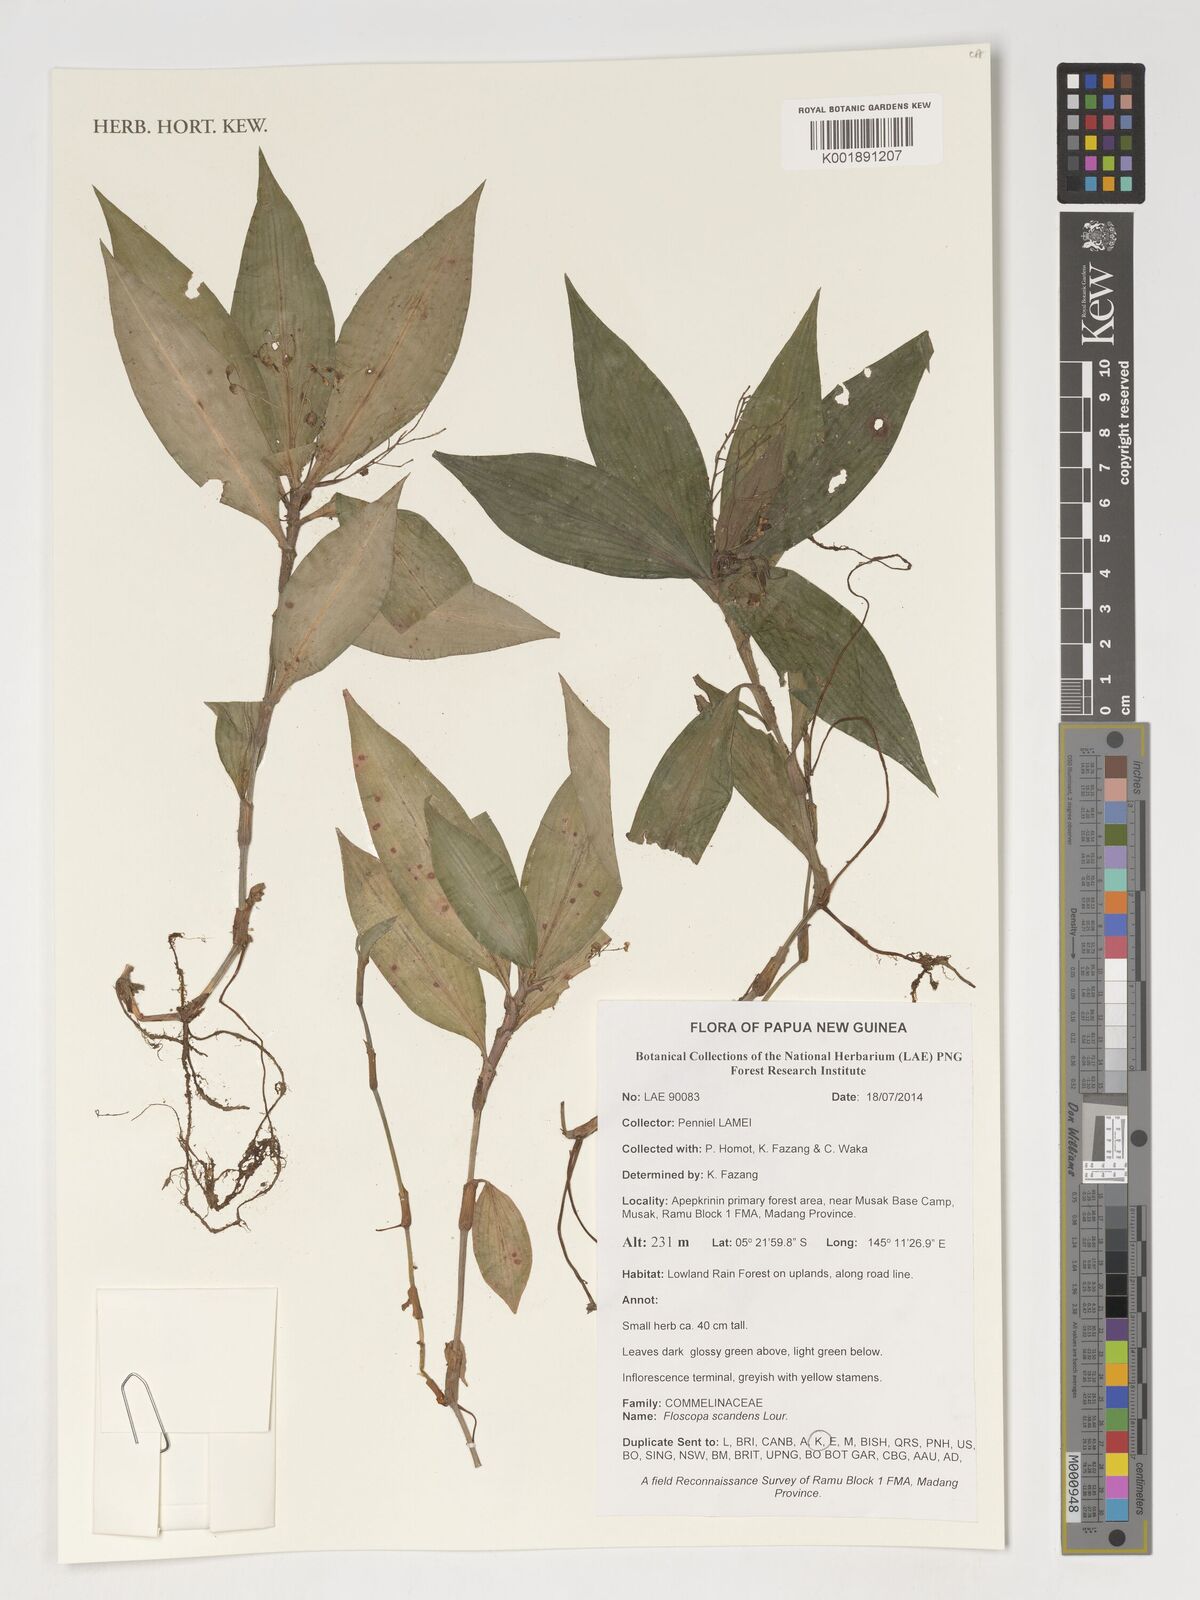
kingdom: Plantae
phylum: Tracheophyta
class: Liliopsida
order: Commelinales
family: Commelinaceae
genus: Floscopa
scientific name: Floscopa scandens
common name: Climbing flower cup
